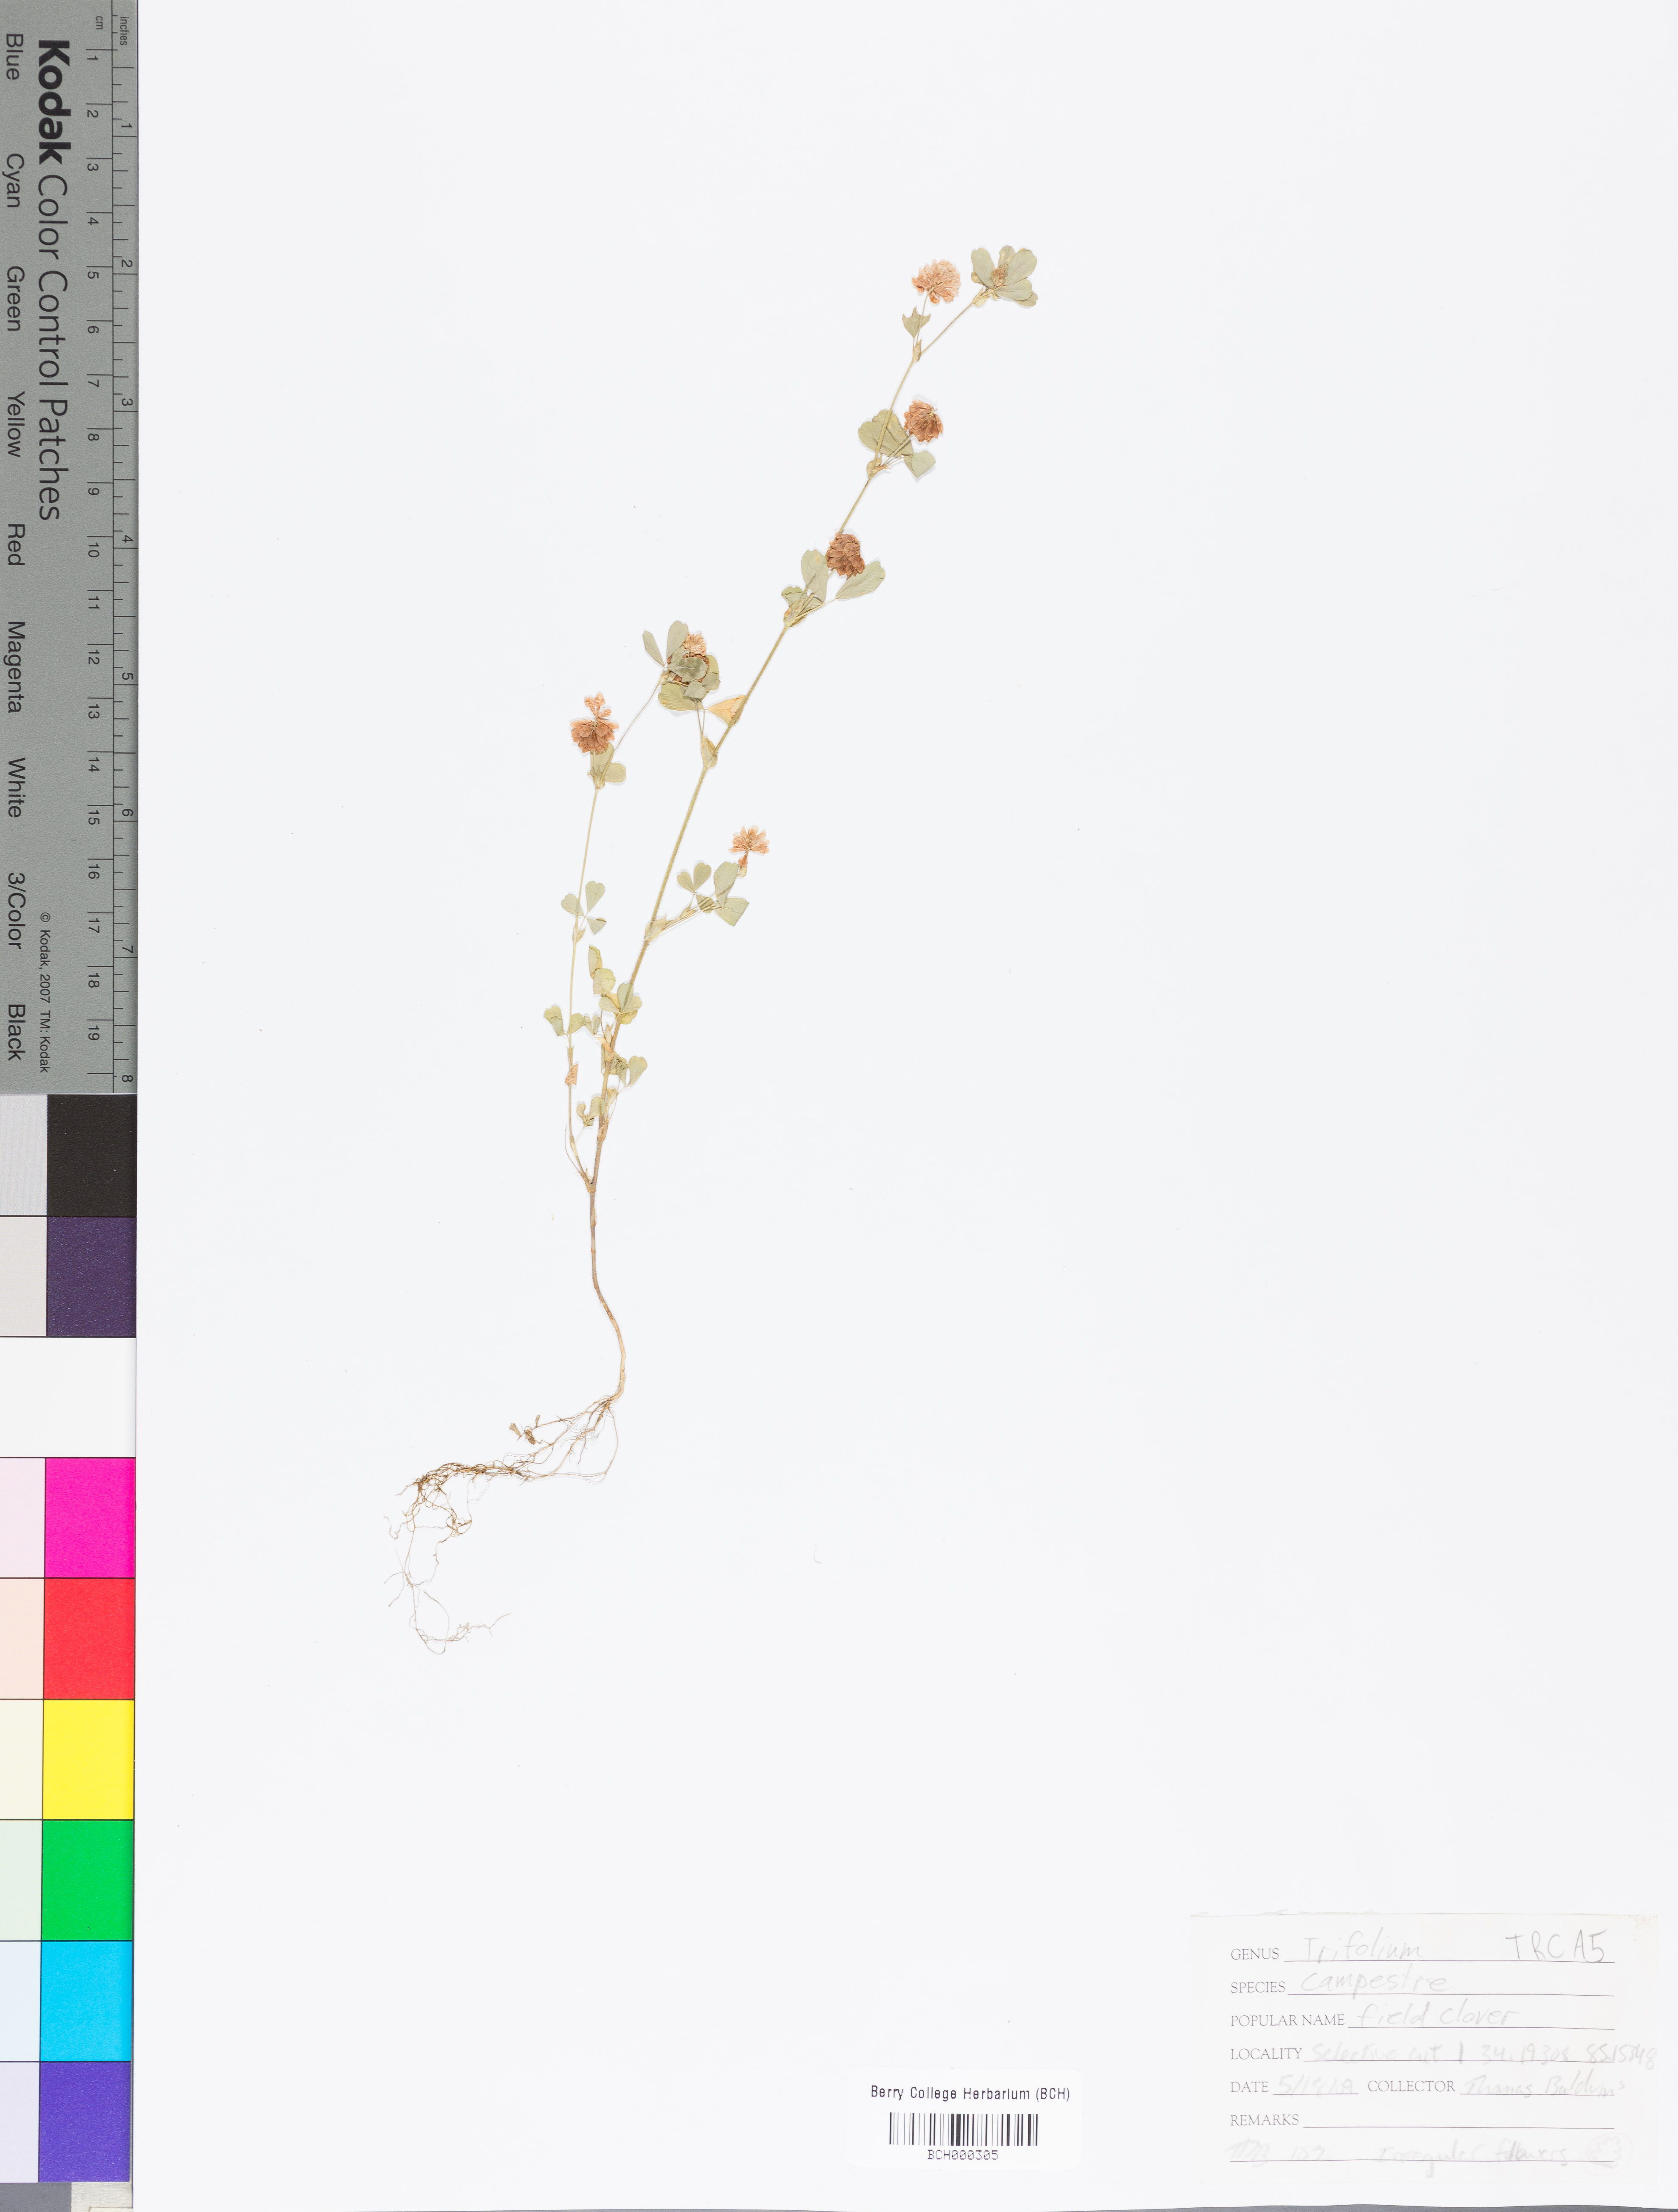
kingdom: Plantae
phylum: Tracheophyta
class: Magnoliopsida
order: Fabales
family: Fabaceae
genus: Trifolium
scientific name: Trifolium campestre
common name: Field clover
